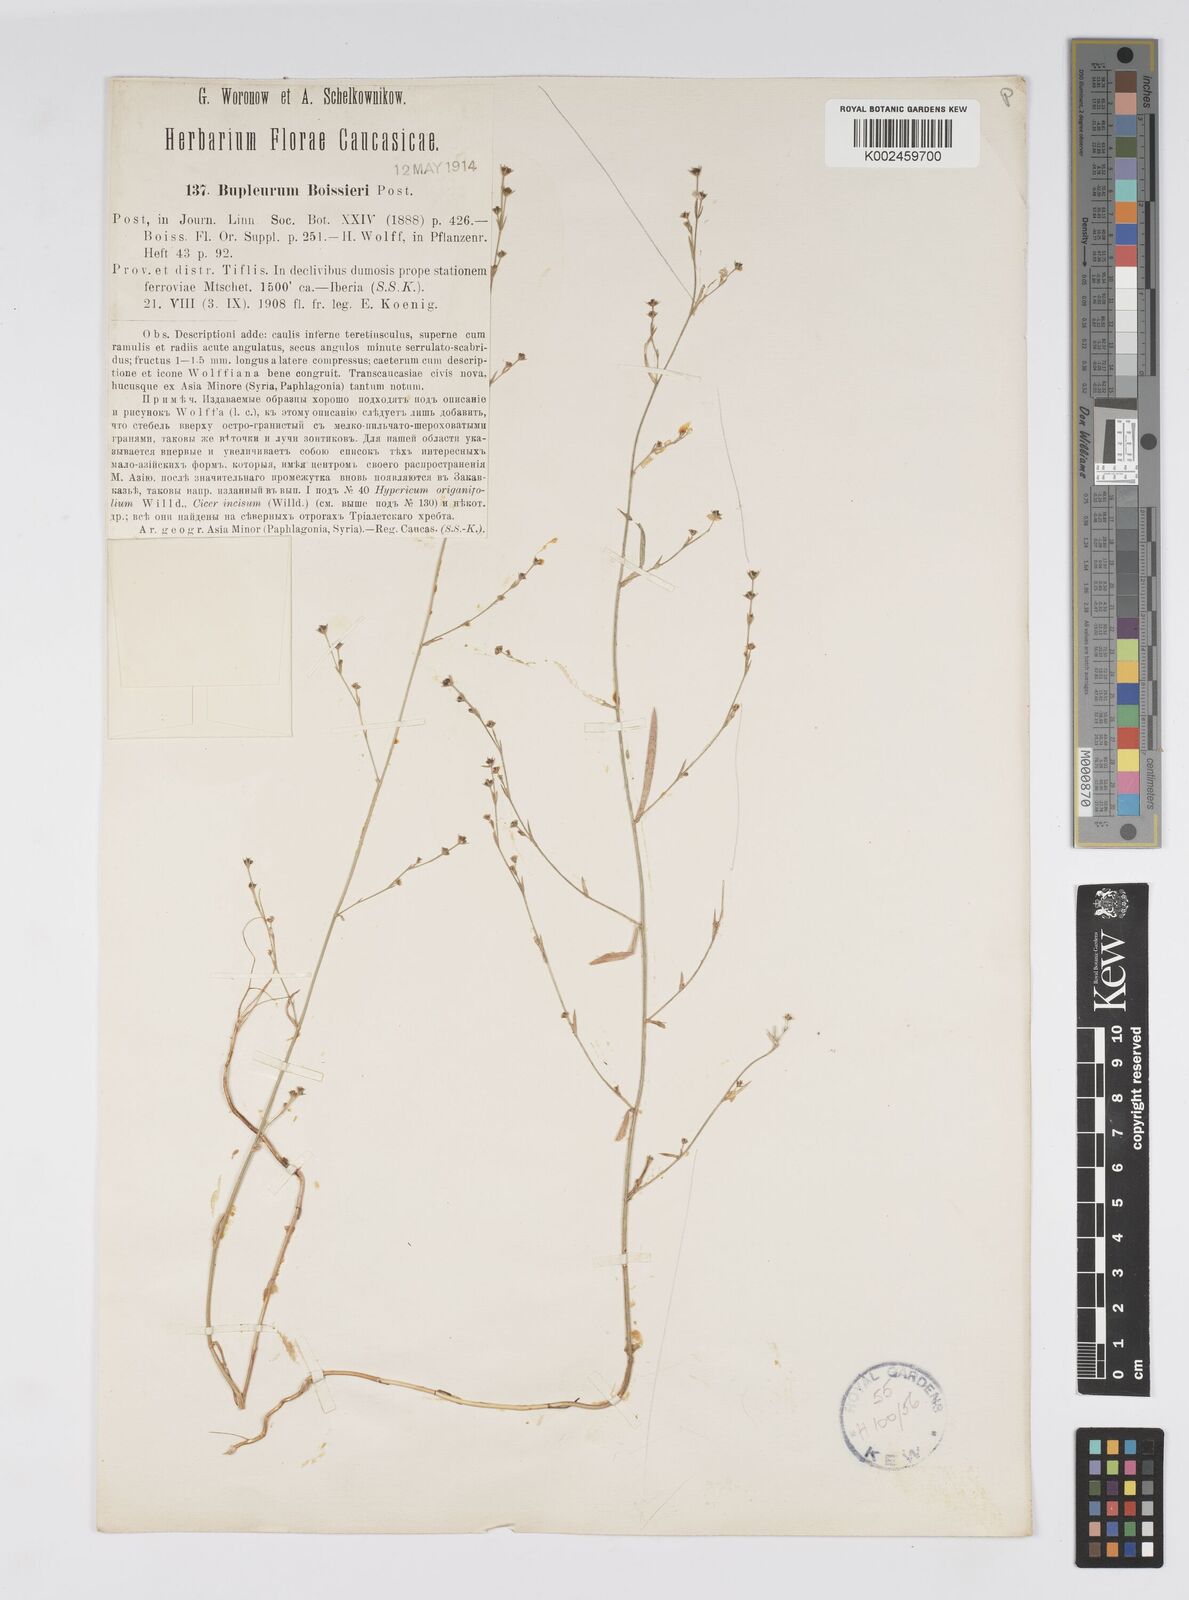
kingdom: Plantae
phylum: Tracheophyta
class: Magnoliopsida
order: Apiales
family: Apiaceae
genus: Bupleurum
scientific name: Bupleurum boissieri
